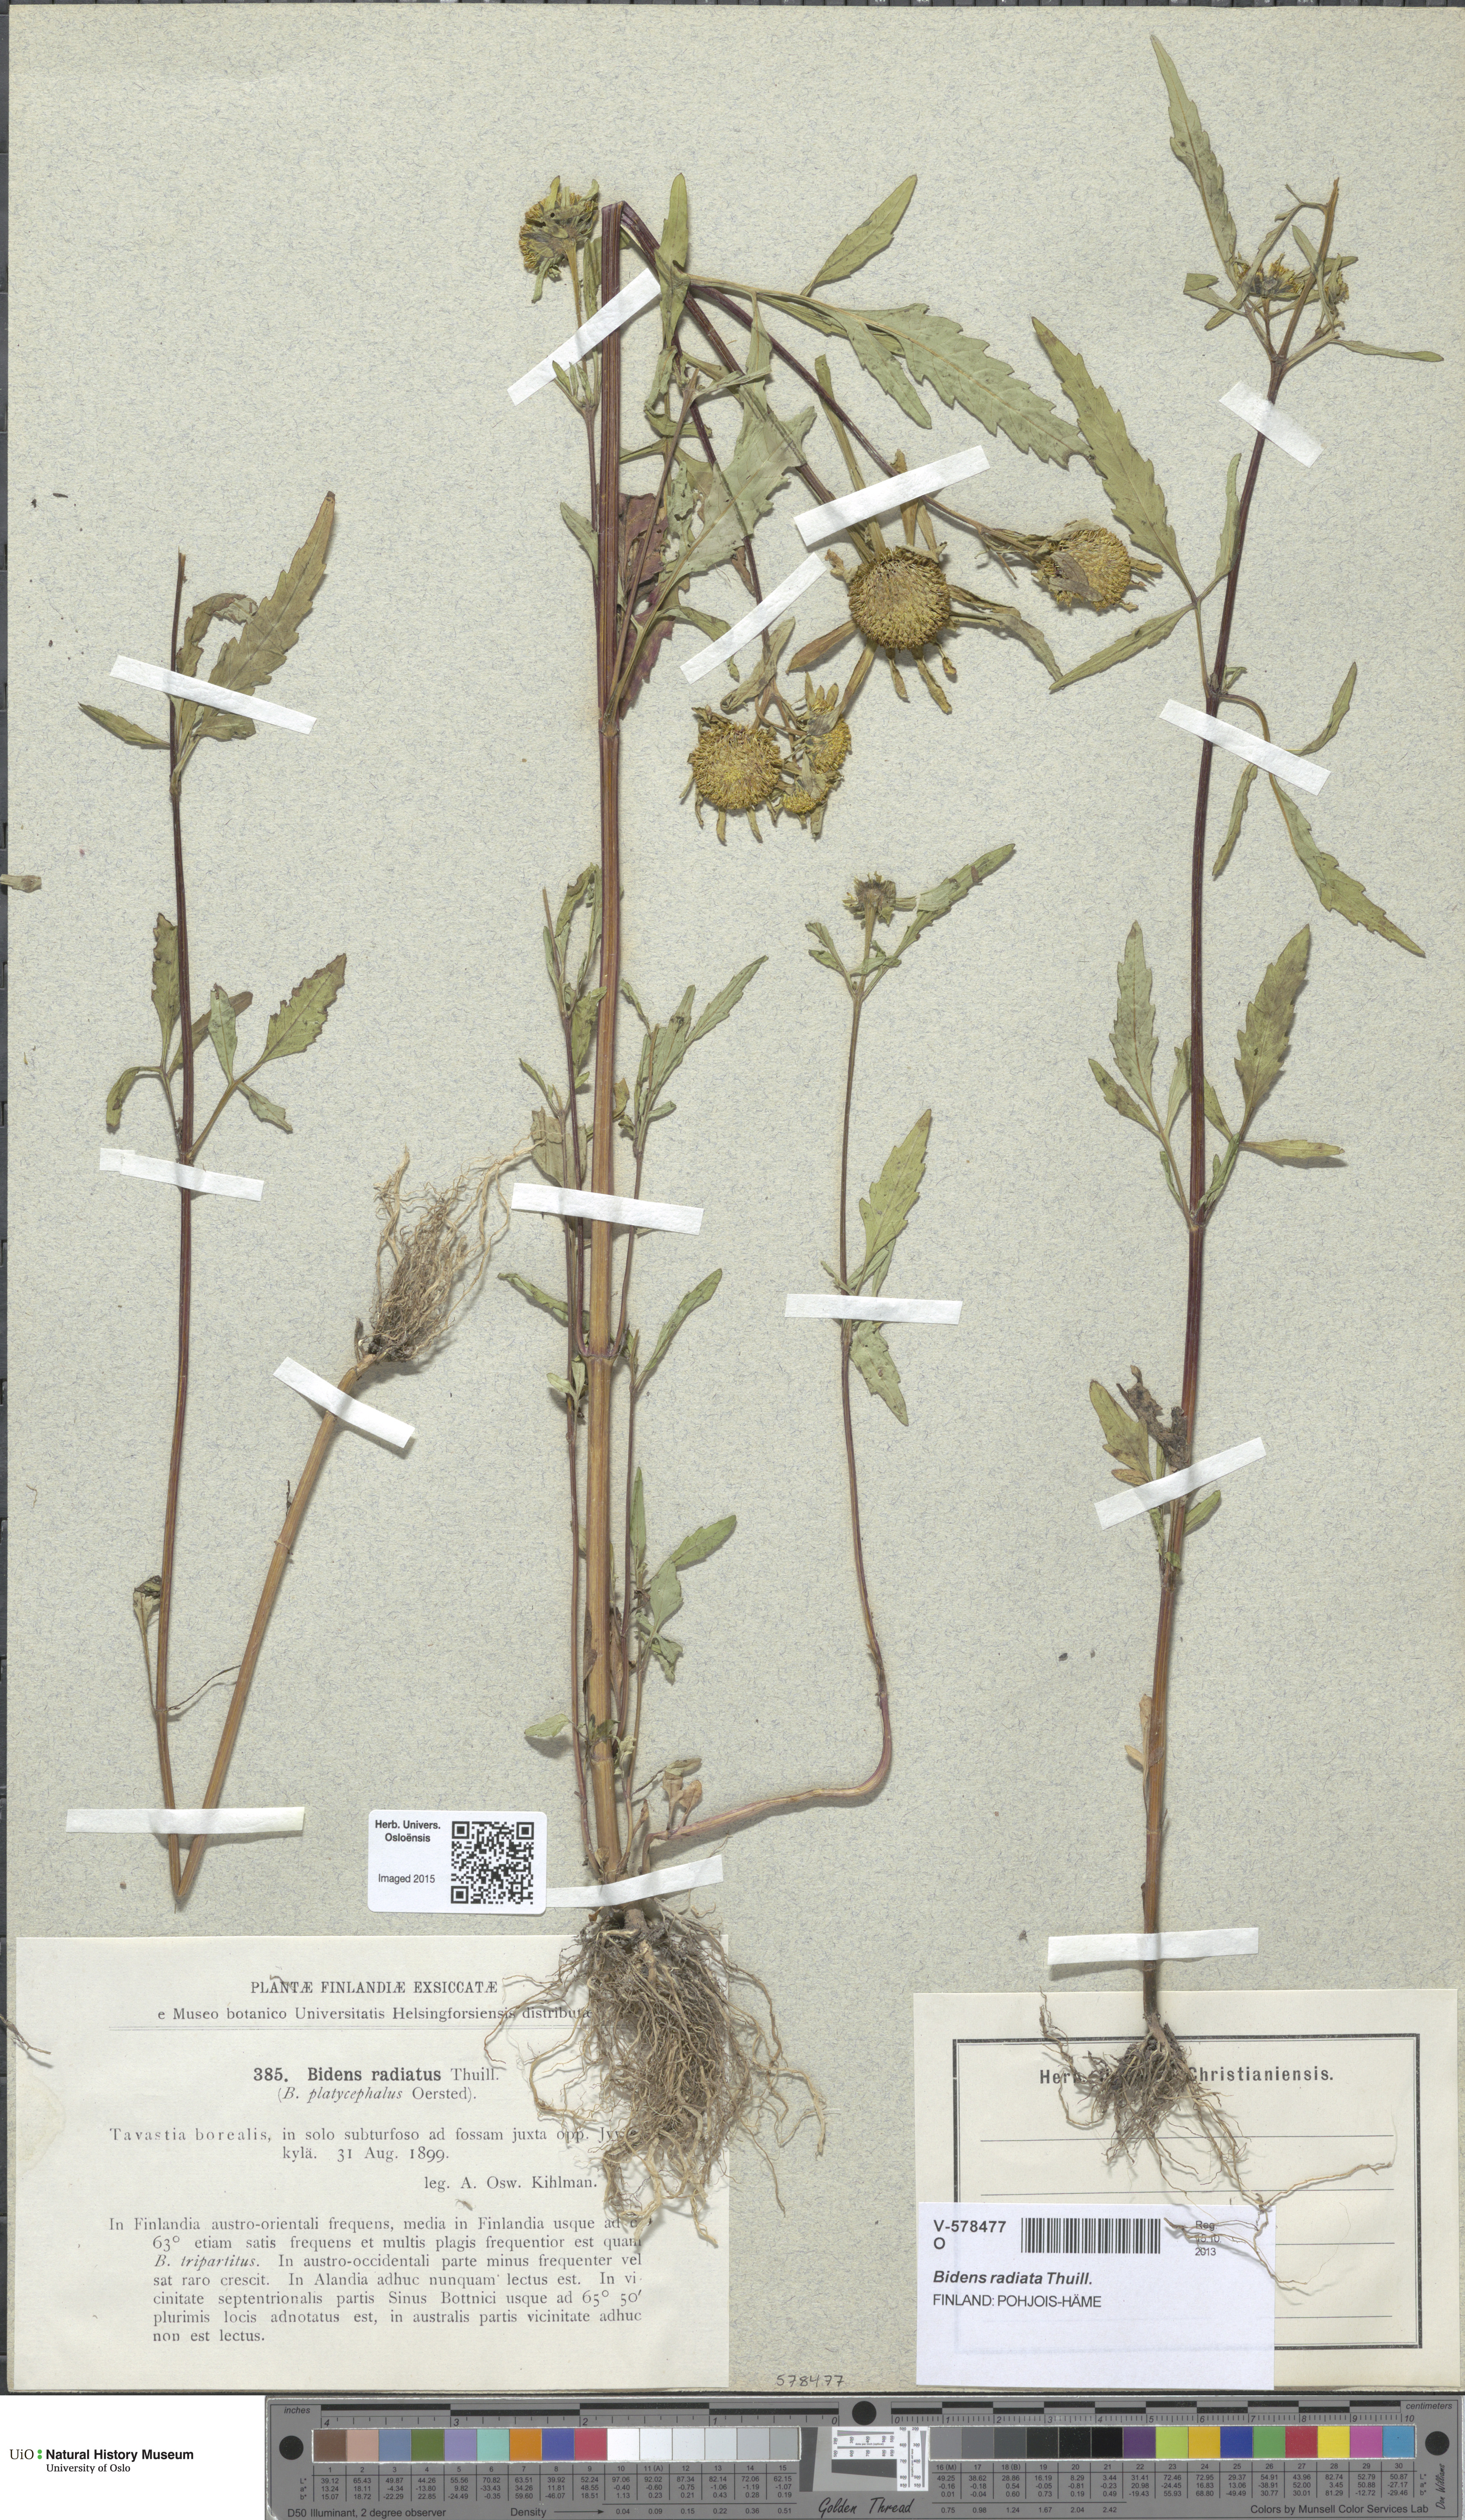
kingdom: Plantae
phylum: Tracheophyta
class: Magnoliopsida
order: Asterales
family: Asteraceae
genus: Bidens
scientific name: Bidens radiata
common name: Radiating bur-marigold
